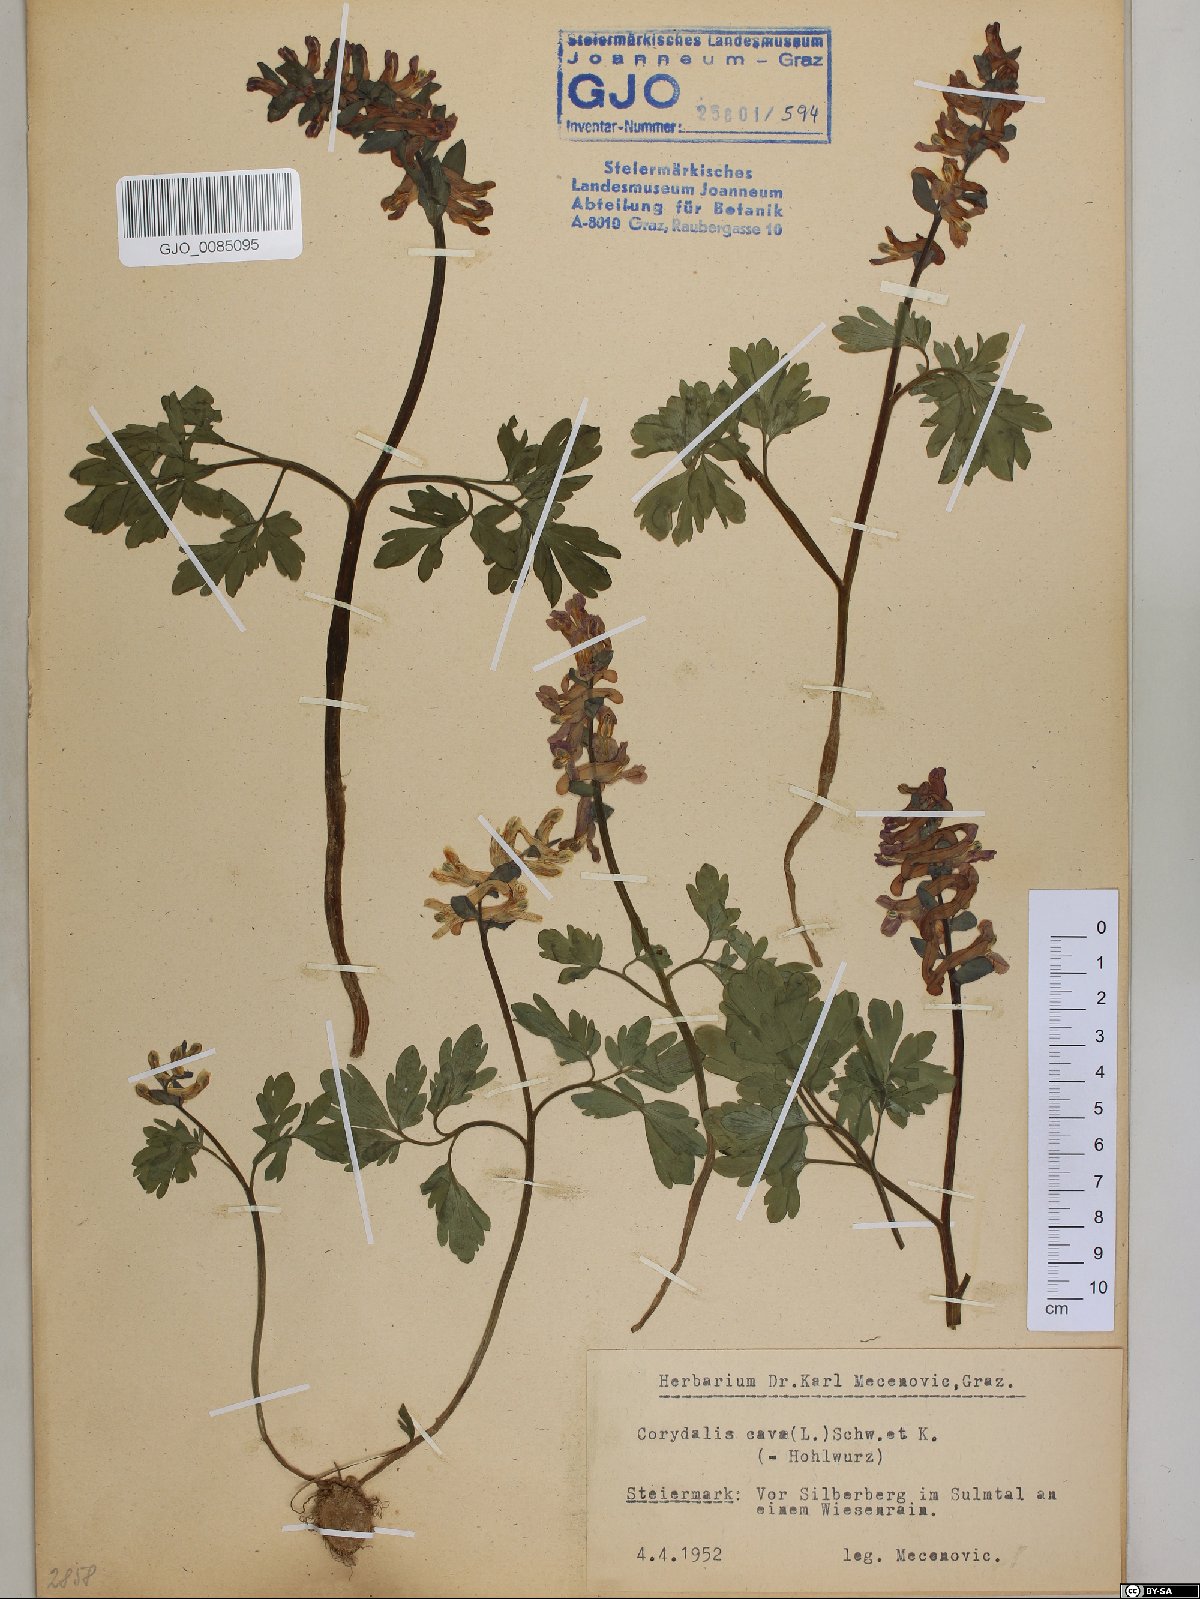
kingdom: Plantae
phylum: Tracheophyta
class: Magnoliopsida
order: Ranunculales
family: Papaveraceae
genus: Corydalis
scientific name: Corydalis cava
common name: Hollowroot
